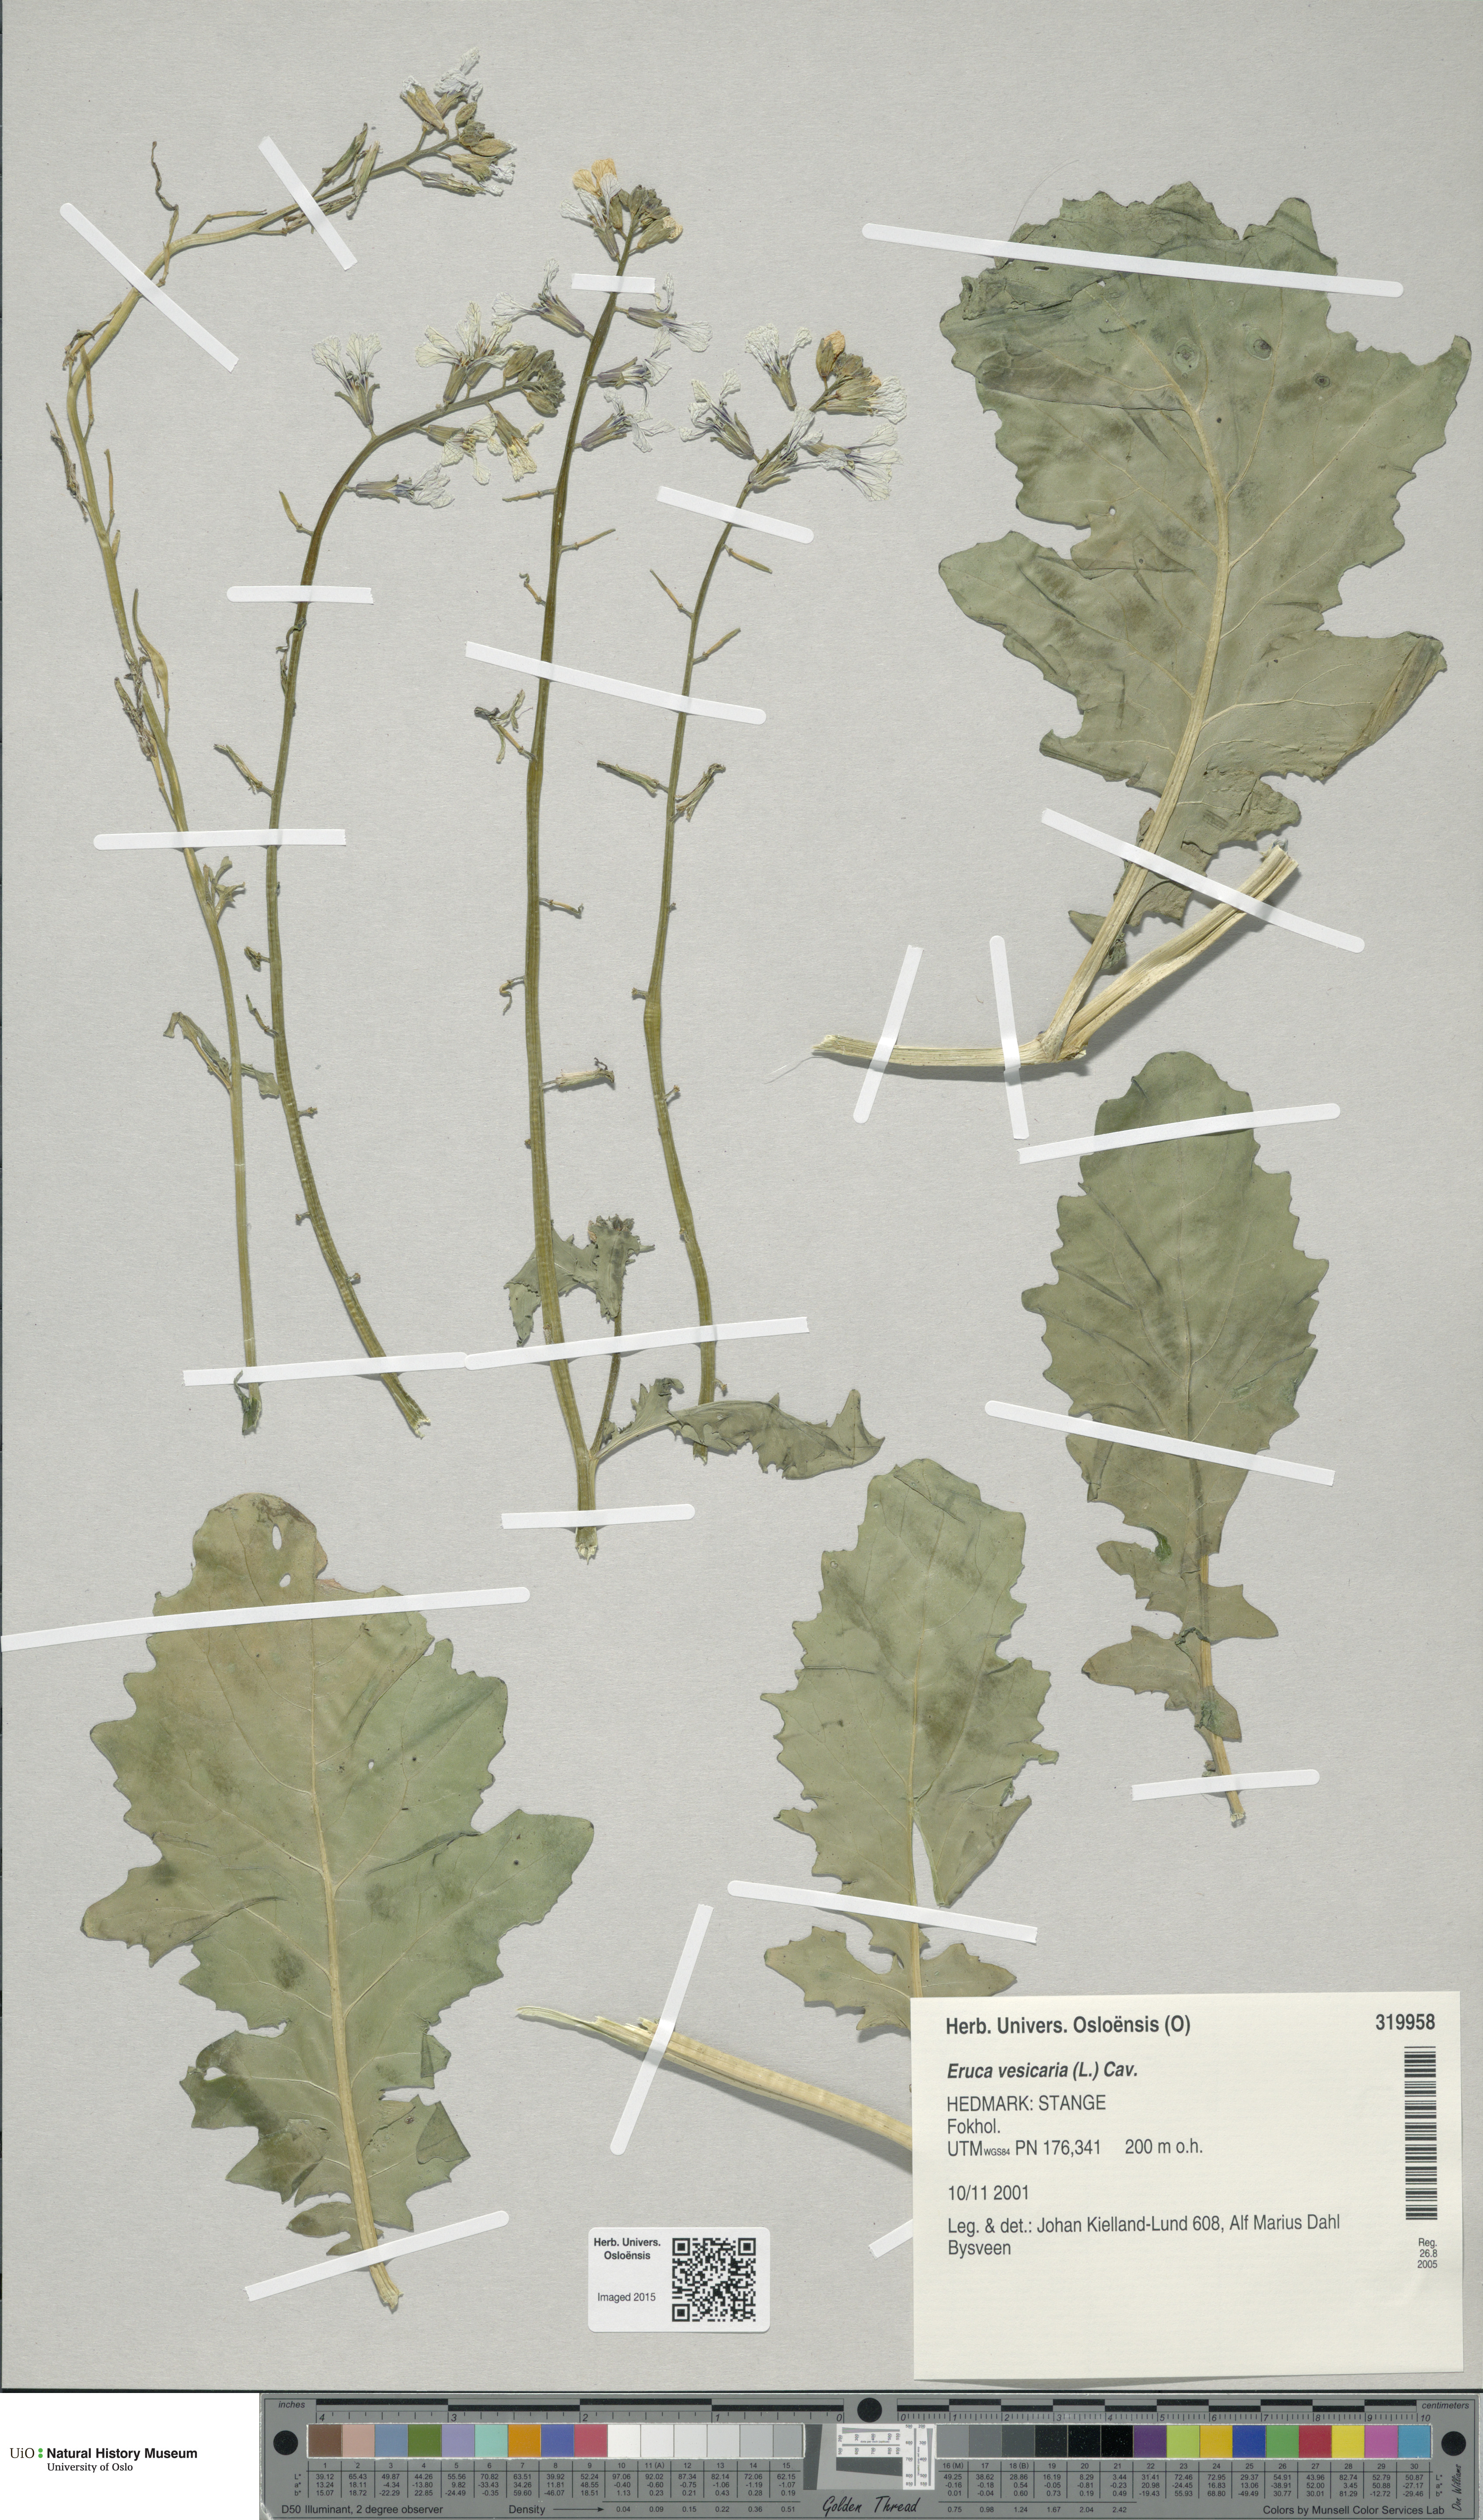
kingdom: Plantae
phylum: Tracheophyta
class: Magnoliopsida
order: Brassicales
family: Brassicaceae
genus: Eruca
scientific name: Eruca vesicaria
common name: Garden rocket
